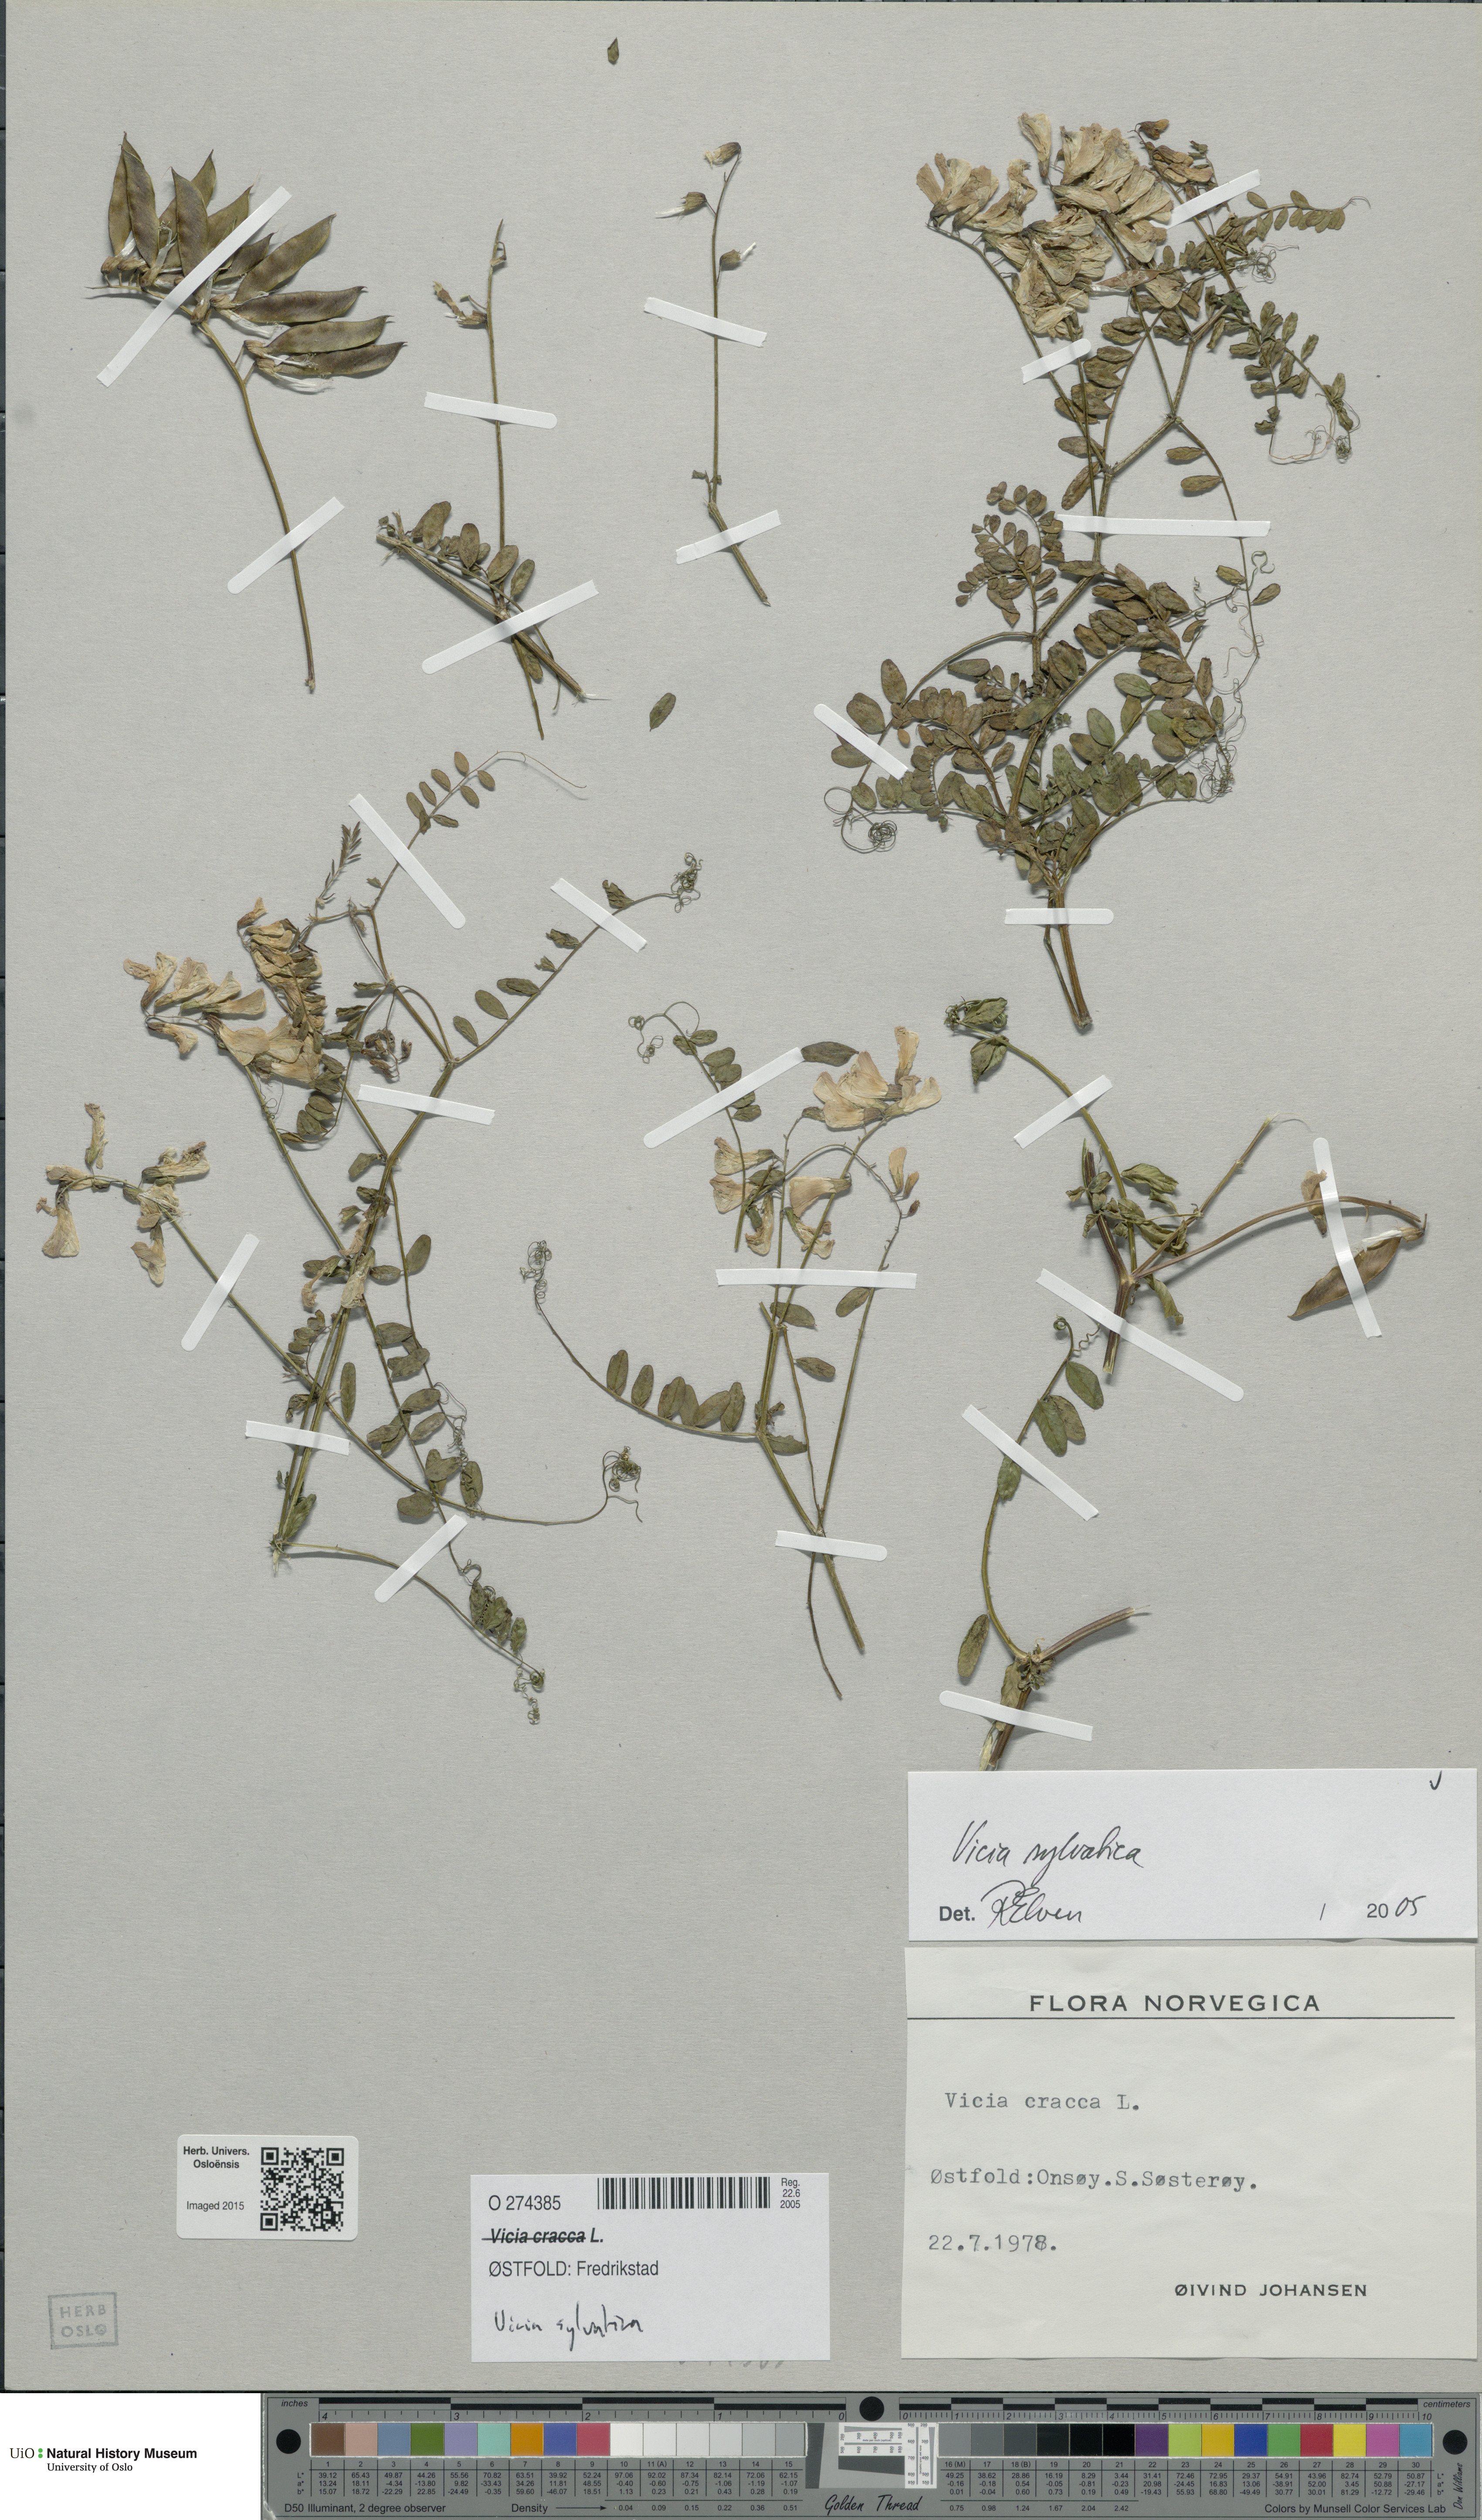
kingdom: Plantae
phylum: Tracheophyta
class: Magnoliopsida
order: Fabales
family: Fabaceae
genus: Vicia
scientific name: Vicia sylvatica
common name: Wood vetch
